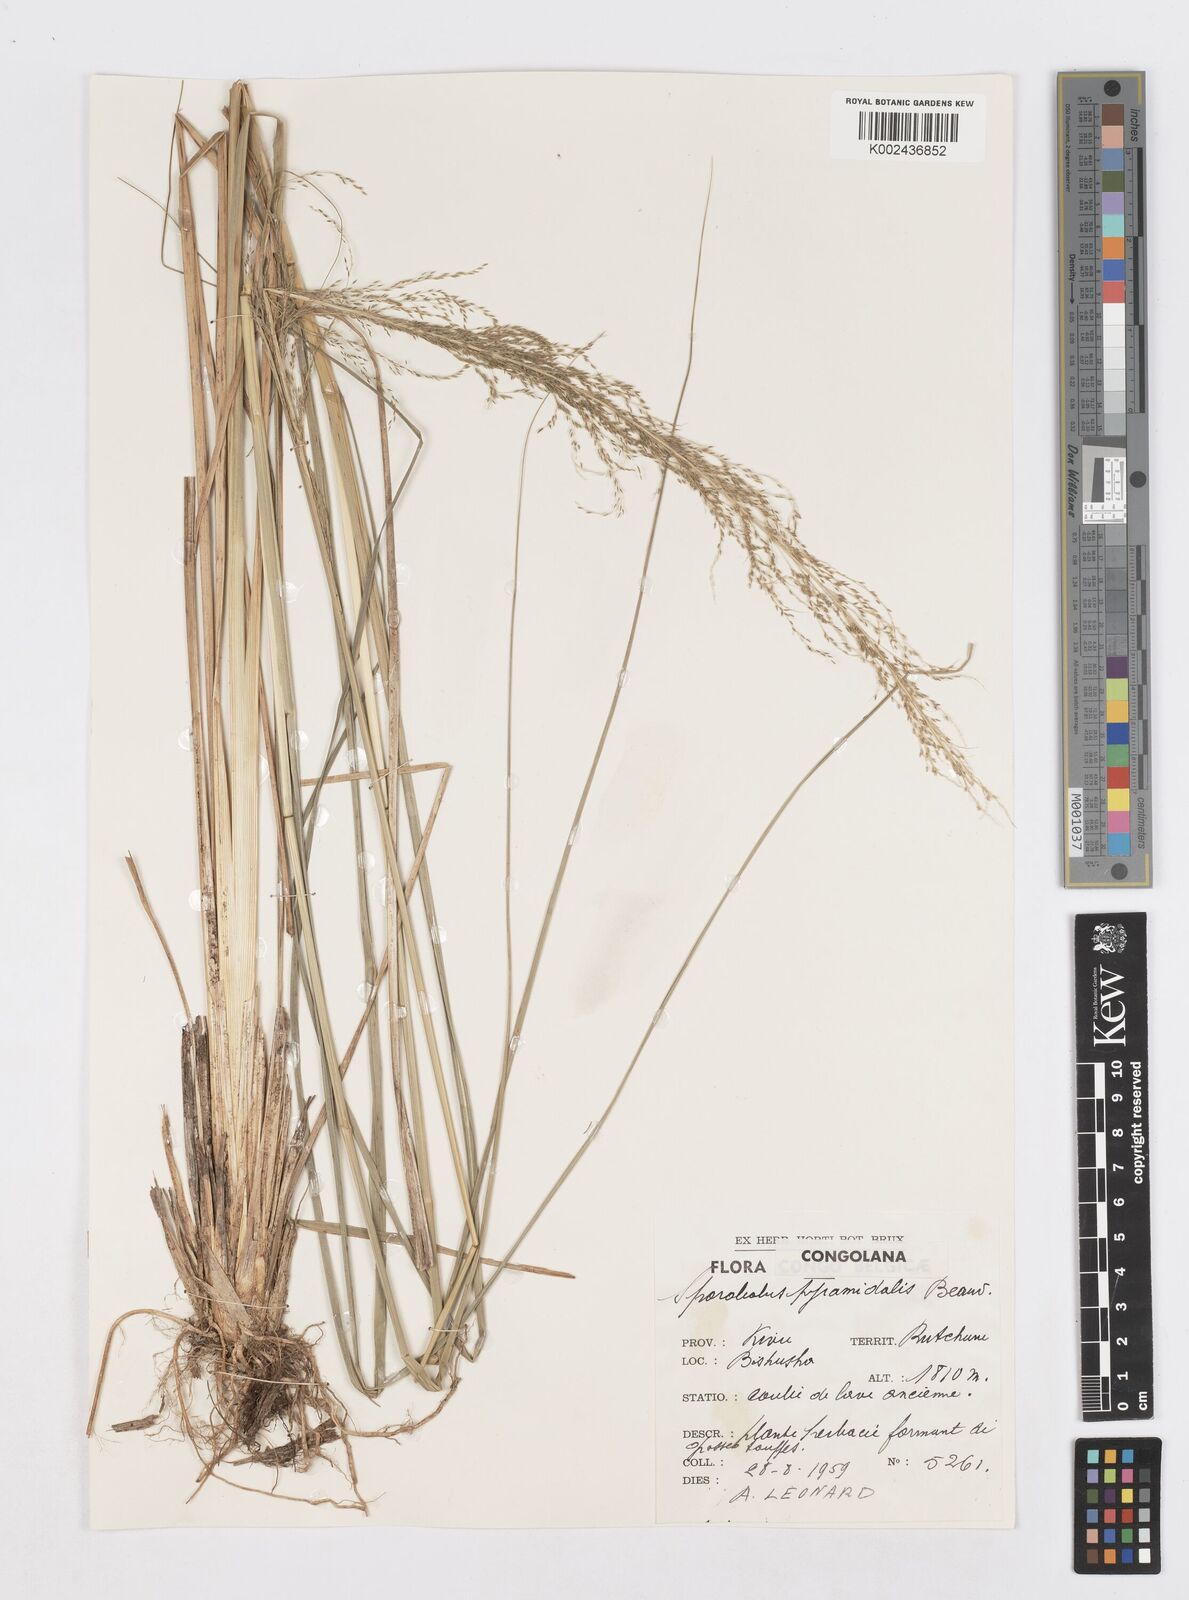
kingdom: Plantae
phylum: Tracheophyta
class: Liliopsida
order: Poales
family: Poaceae
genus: Sporobolus
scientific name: Sporobolus natalensis
